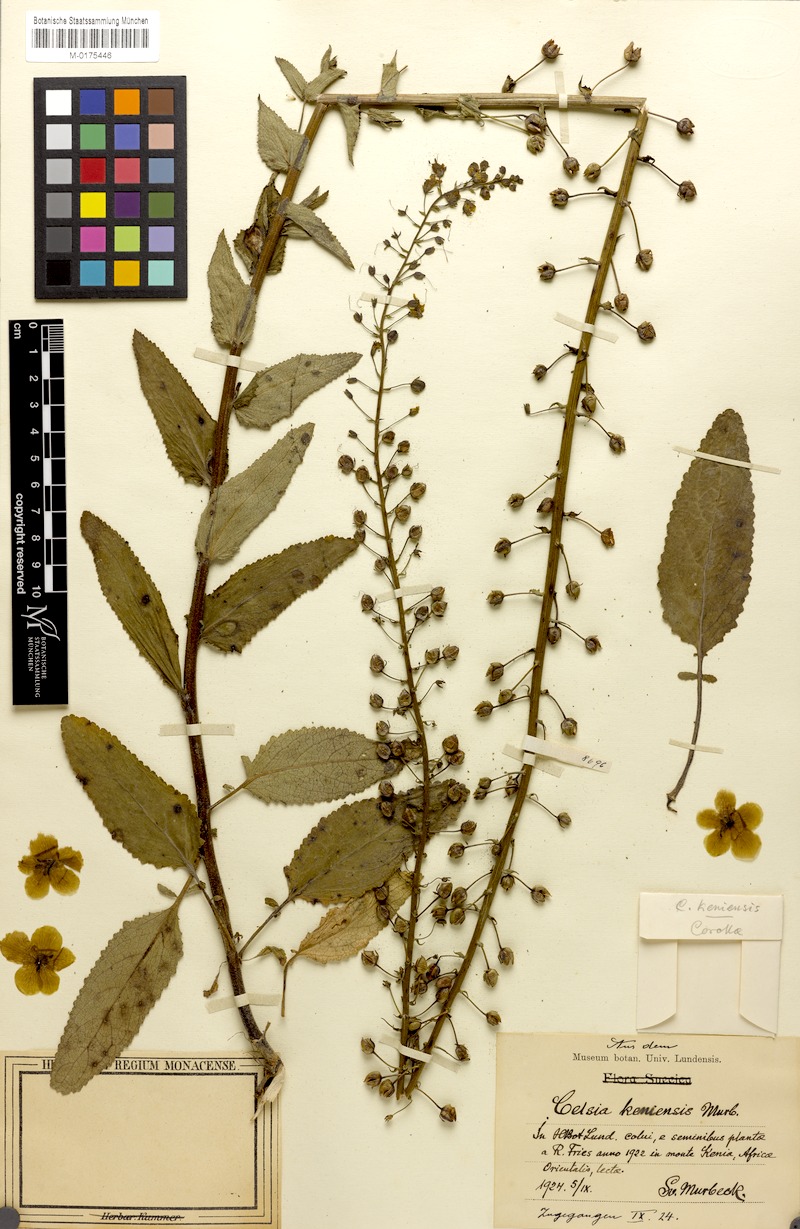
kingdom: Plantae
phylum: Tracheophyta
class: Magnoliopsida
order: Lamiales
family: Scrophulariaceae
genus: Rhabdotosperma
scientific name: Rhabdotosperma brevipedicellata
